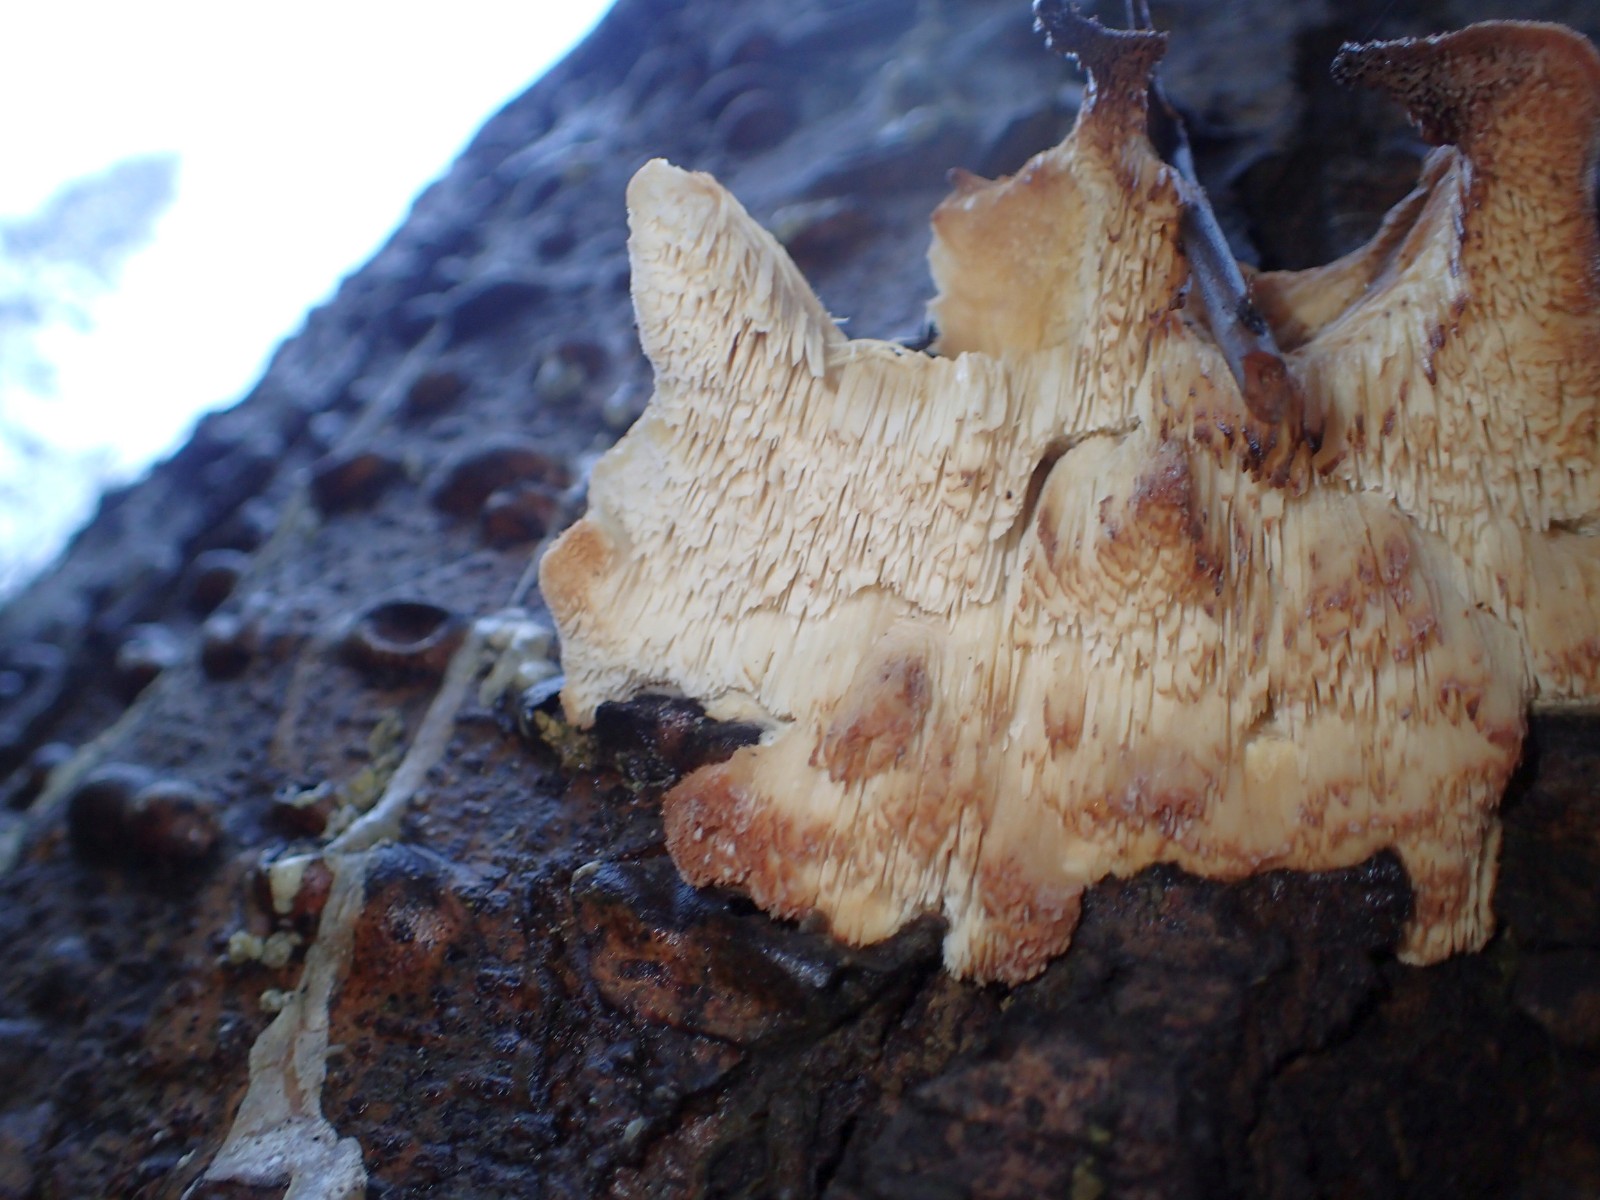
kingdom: Fungi
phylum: Basidiomycota
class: Agaricomycetes
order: Polyporales
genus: Fuscopostia
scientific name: Fuscopostia fragilis
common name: brunende kødporesvamp
